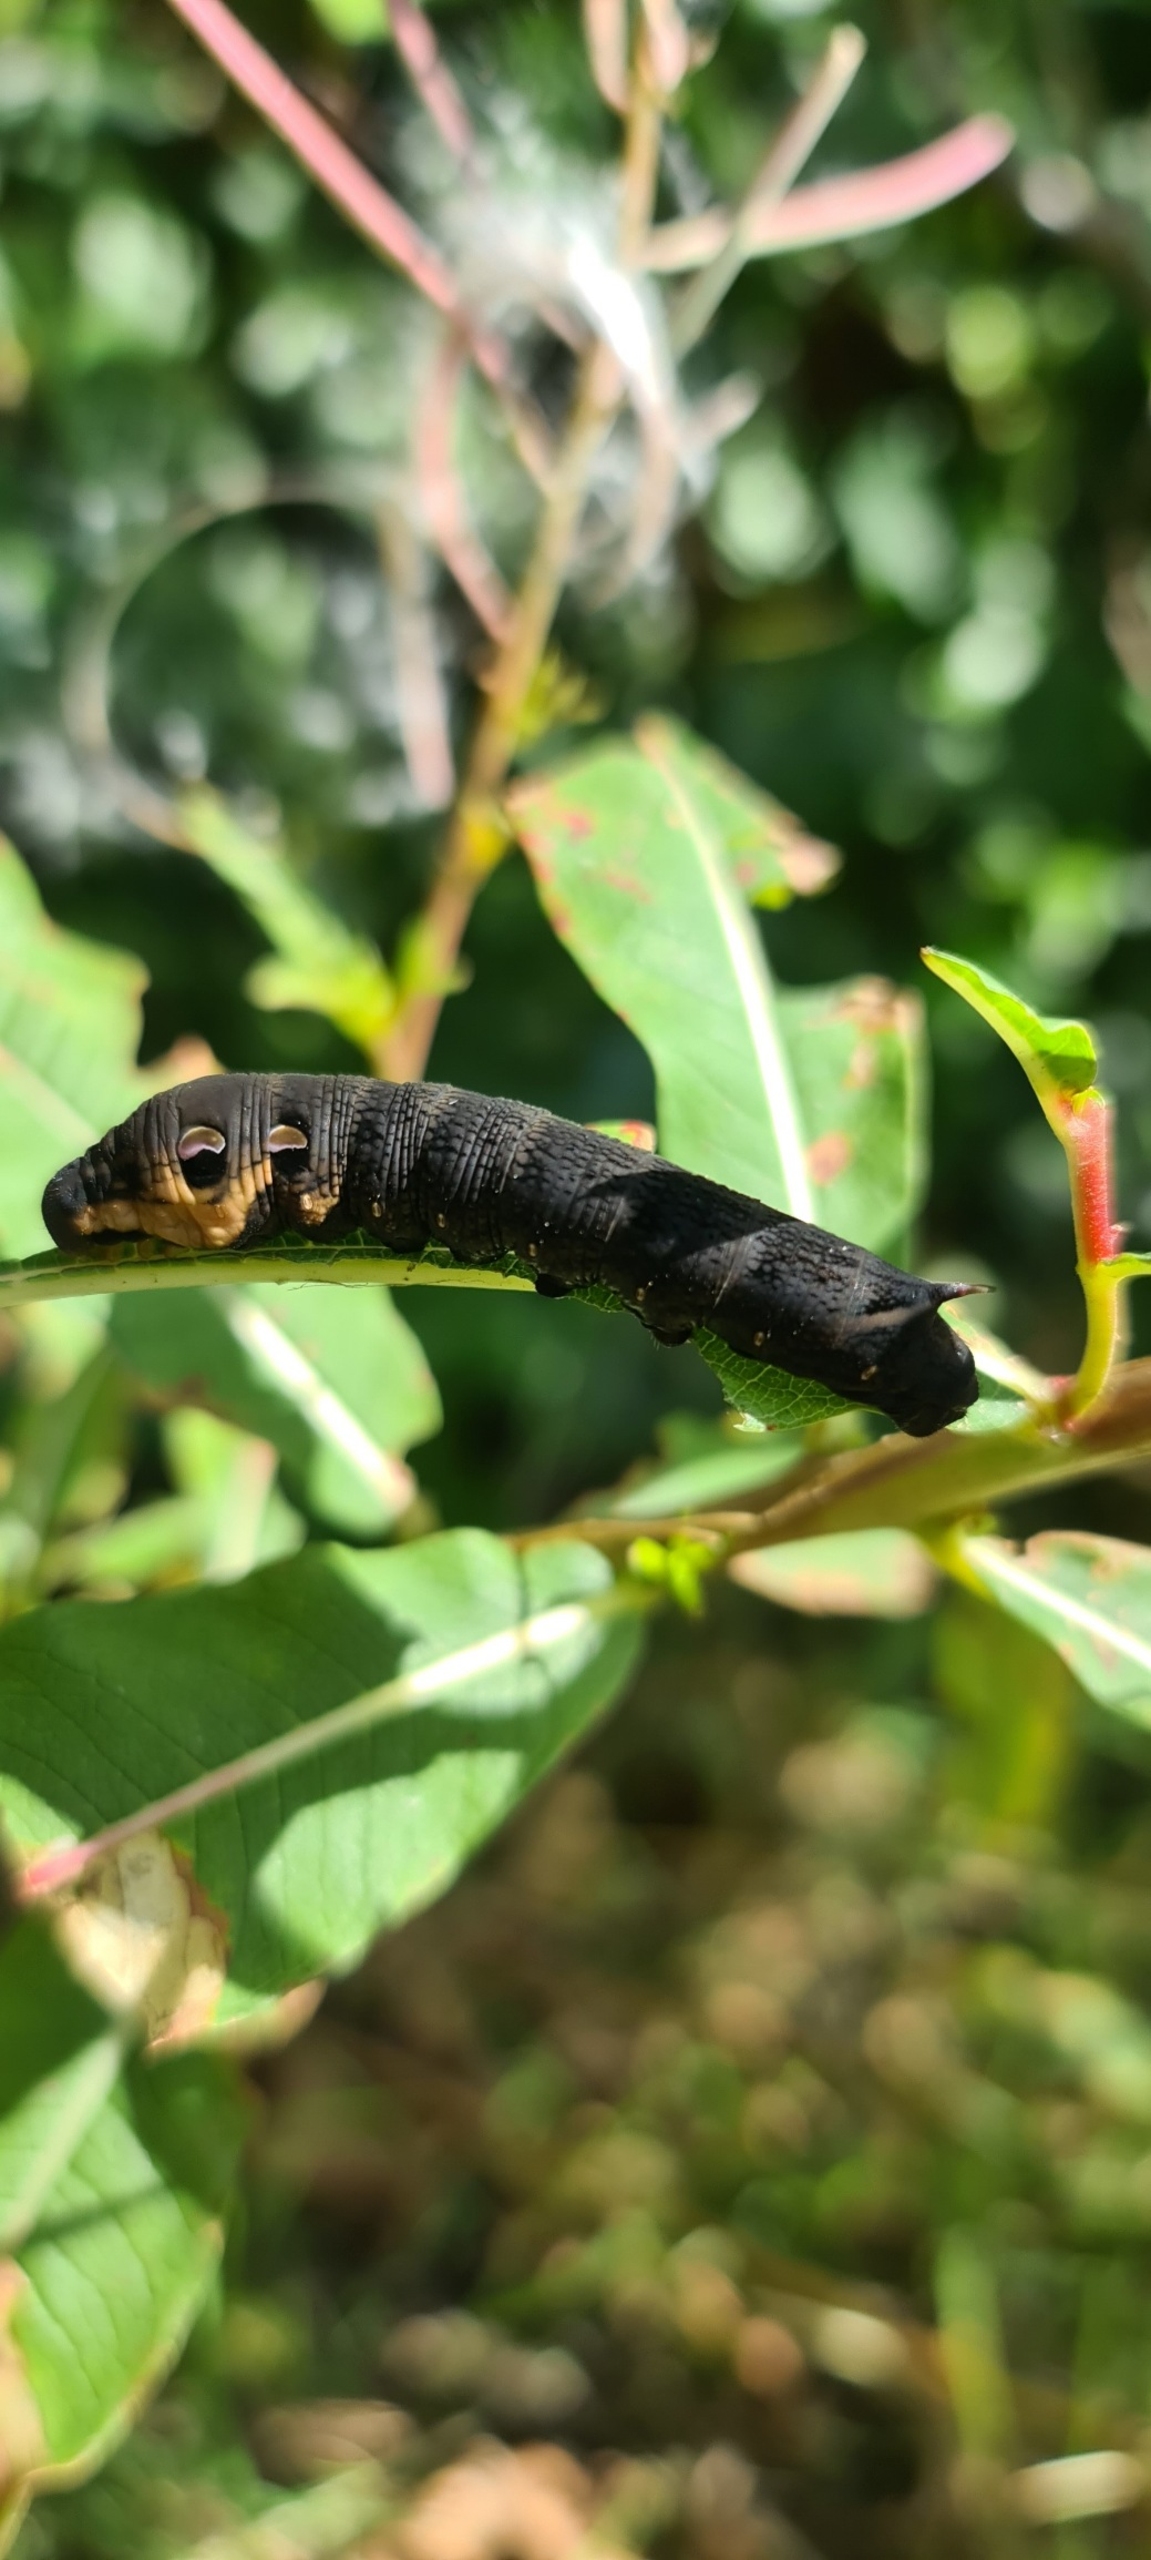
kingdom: Animalia
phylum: Arthropoda
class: Insecta
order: Lepidoptera
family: Sphingidae
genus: Deilephila
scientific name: Deilephila elpenor
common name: Dueurtsværmer
